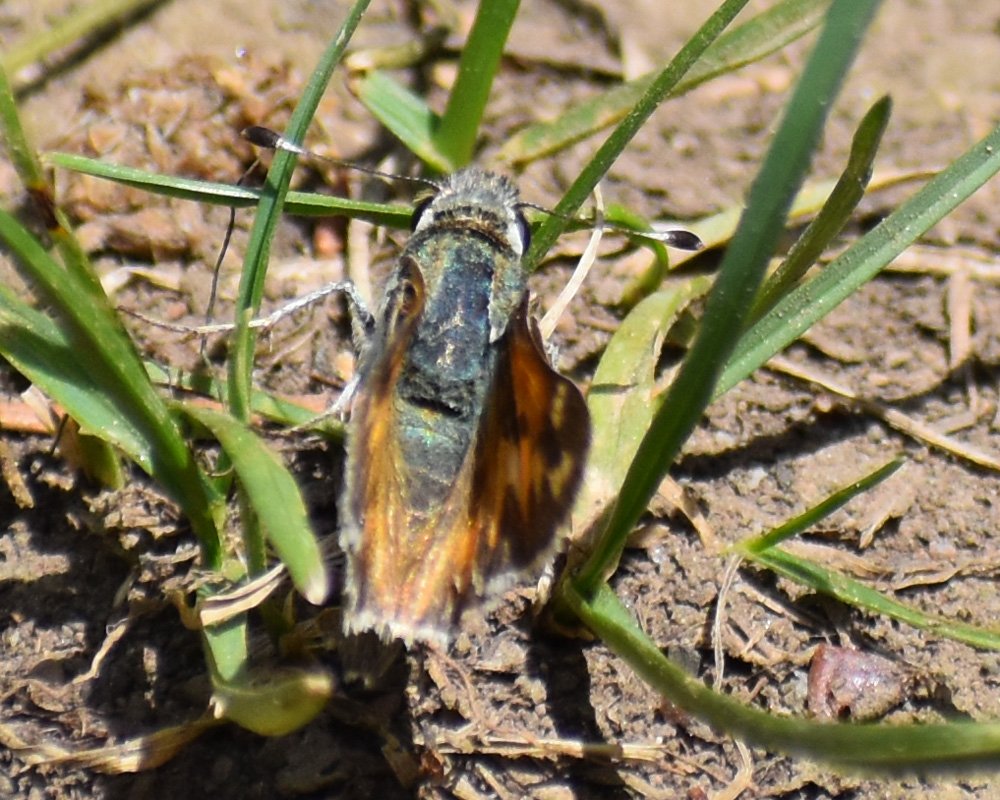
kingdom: Animalia
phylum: Arthropoda
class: Insecta
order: Lepidoptera
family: Hesperiidae
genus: Hesperia
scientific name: Hesperia juba
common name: Juba Skipper
